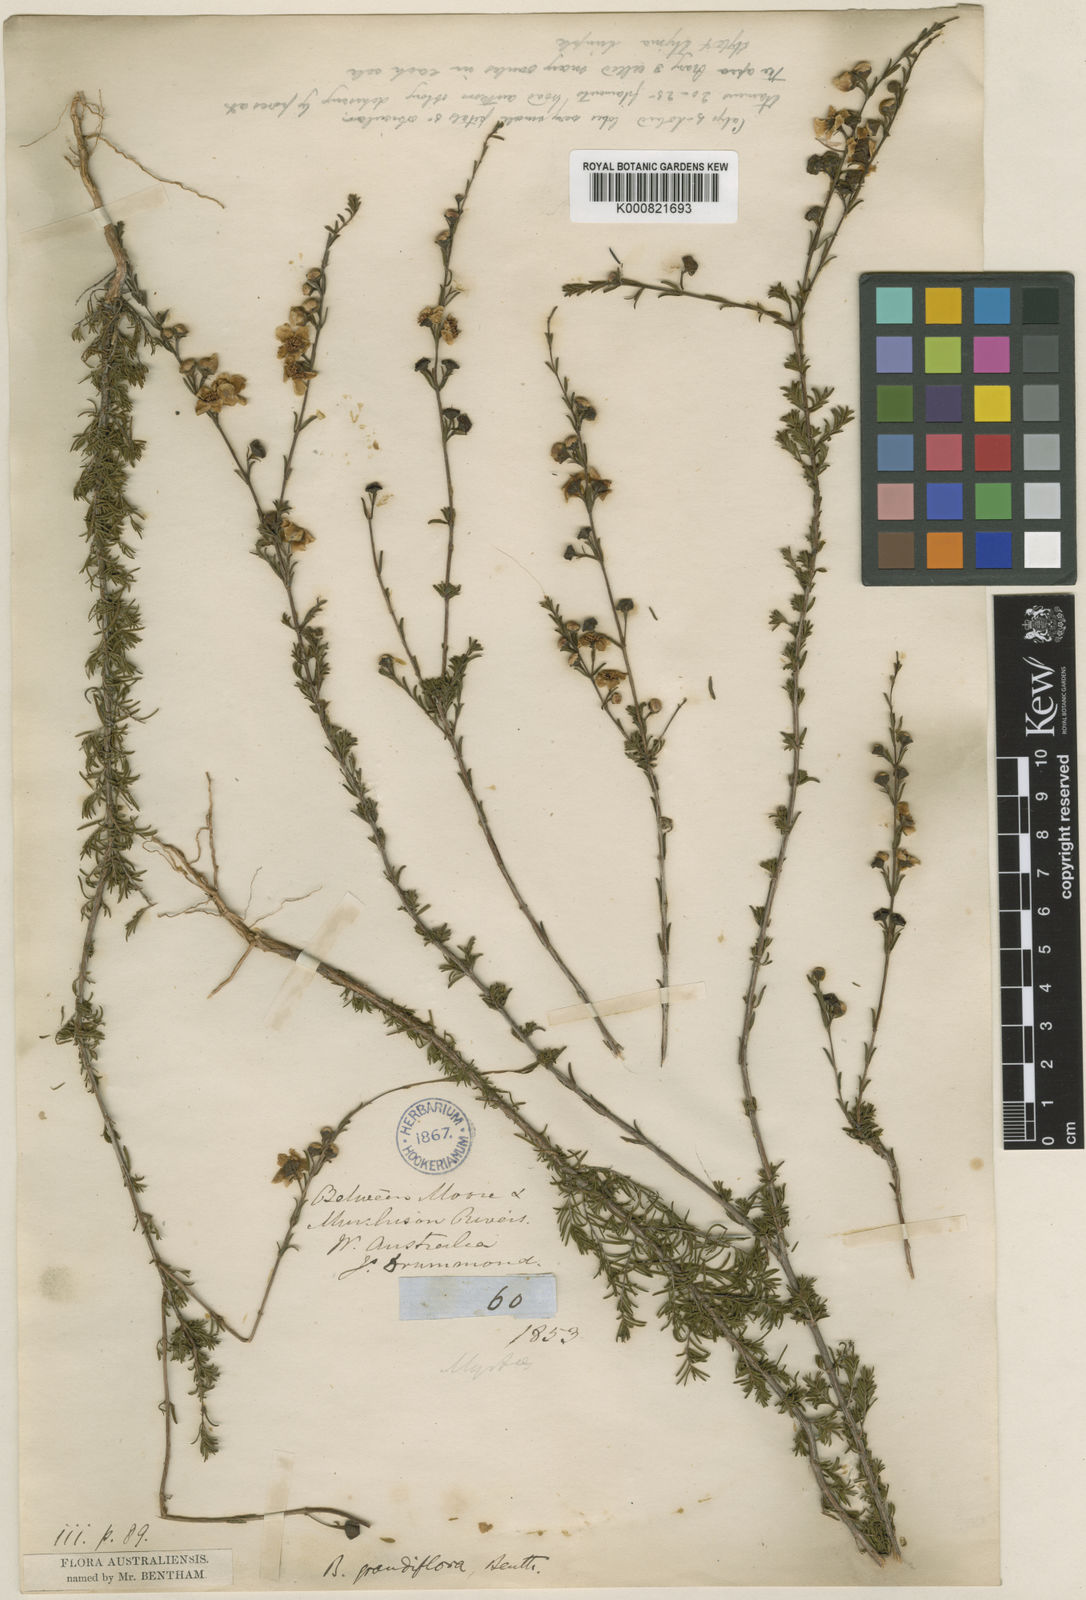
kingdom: Plantae
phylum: Tracheophyta
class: Magnoliopsida
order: Myrtales
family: Myrtaceae
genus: Babingtonia
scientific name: Babingtonia grandiflora
